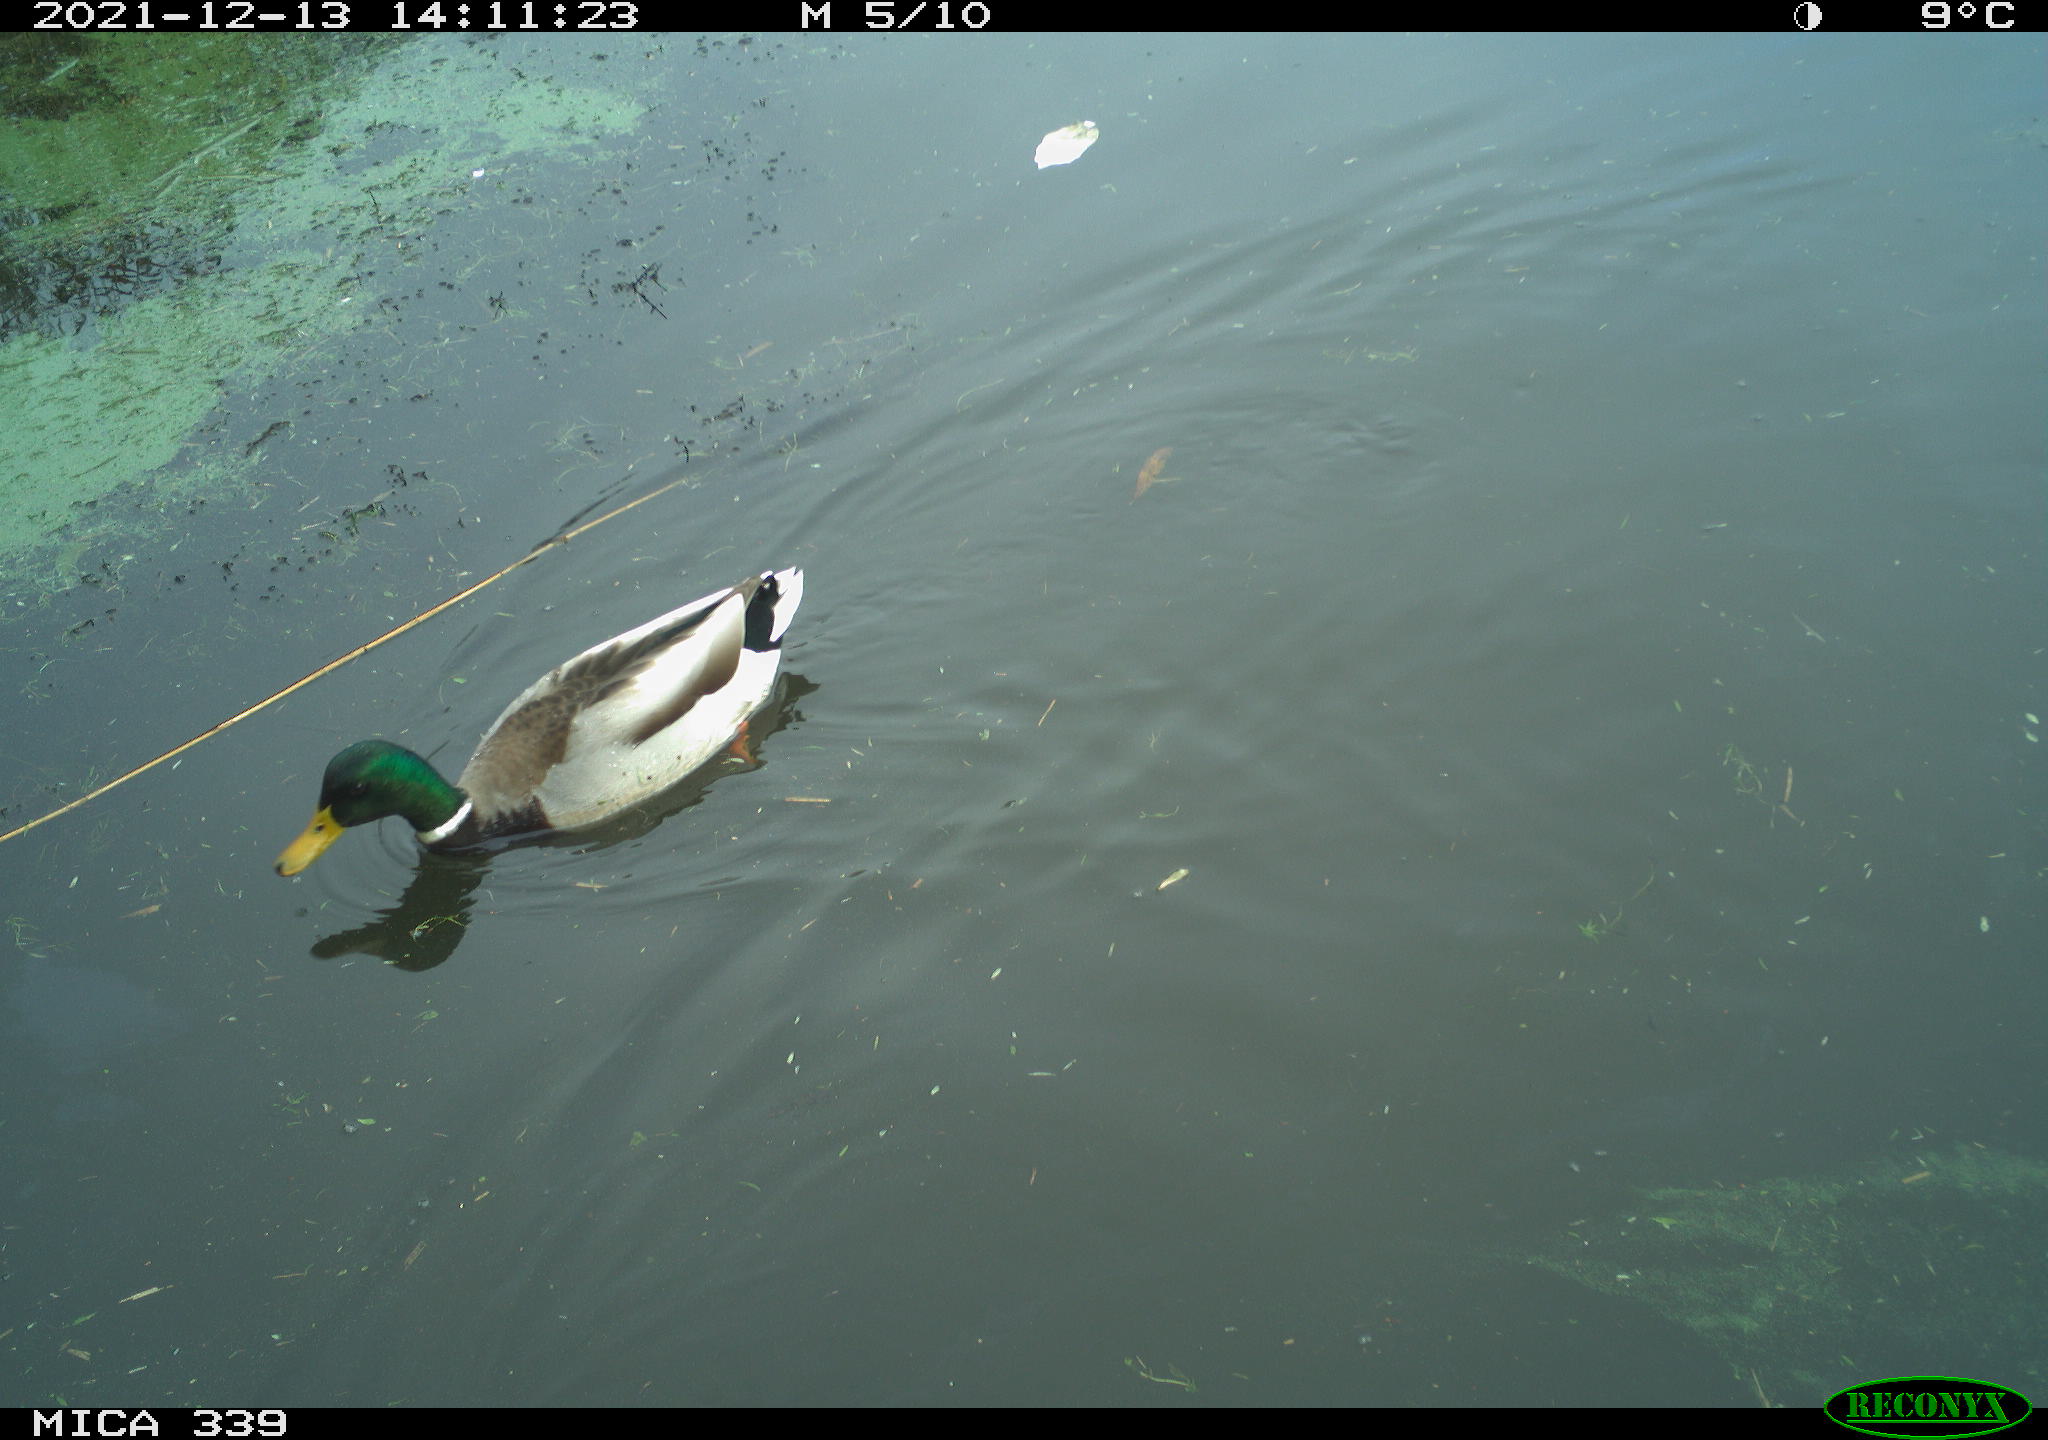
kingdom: Animalia
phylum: Chordata
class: Aves
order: Anseriformes
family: Anatidae
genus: Anas
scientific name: Anas platyrhynchos
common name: Mallard
